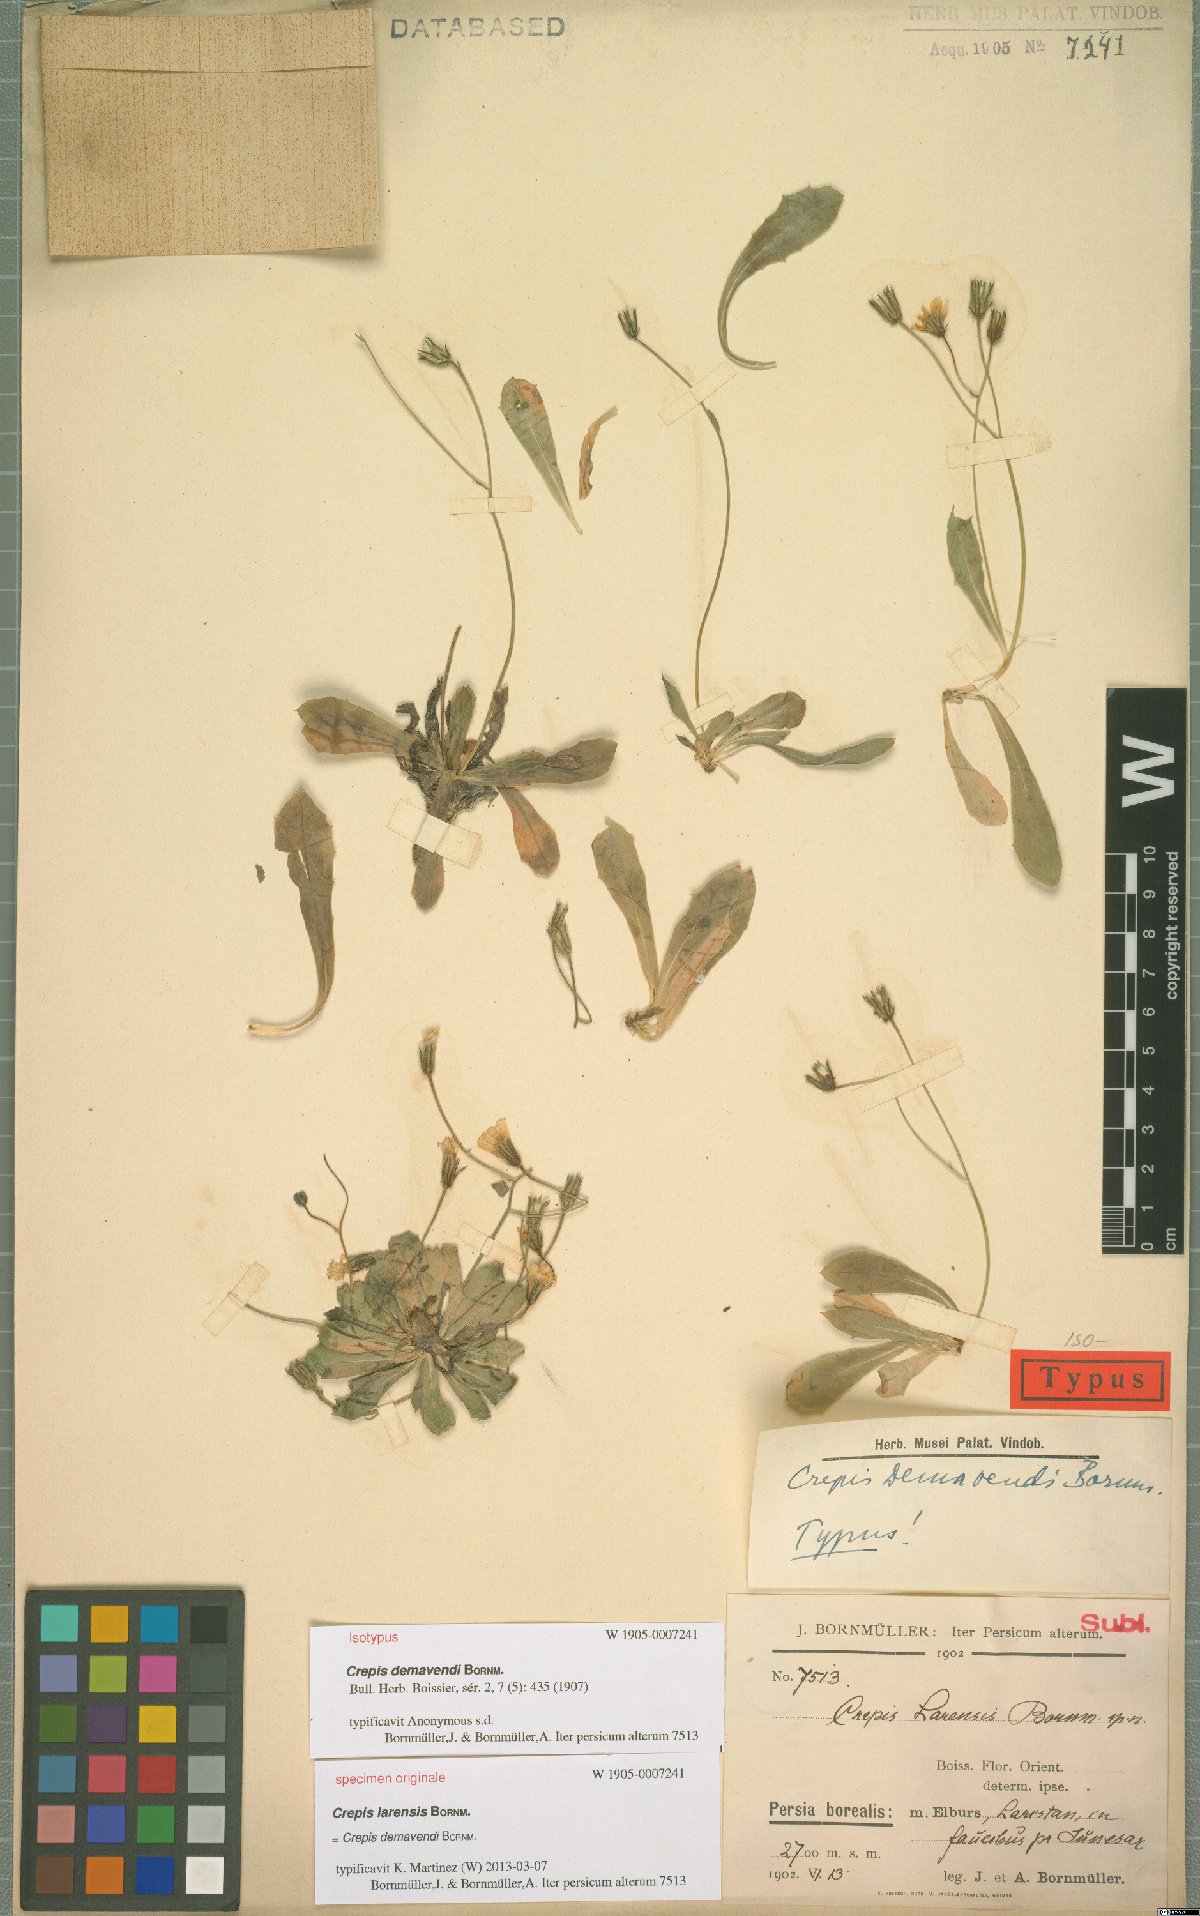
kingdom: Plantae
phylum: Tracheophyta
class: Magnoliopsida
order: Asterales
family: Asteraceae
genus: Crepis
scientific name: Crepis demavendi
